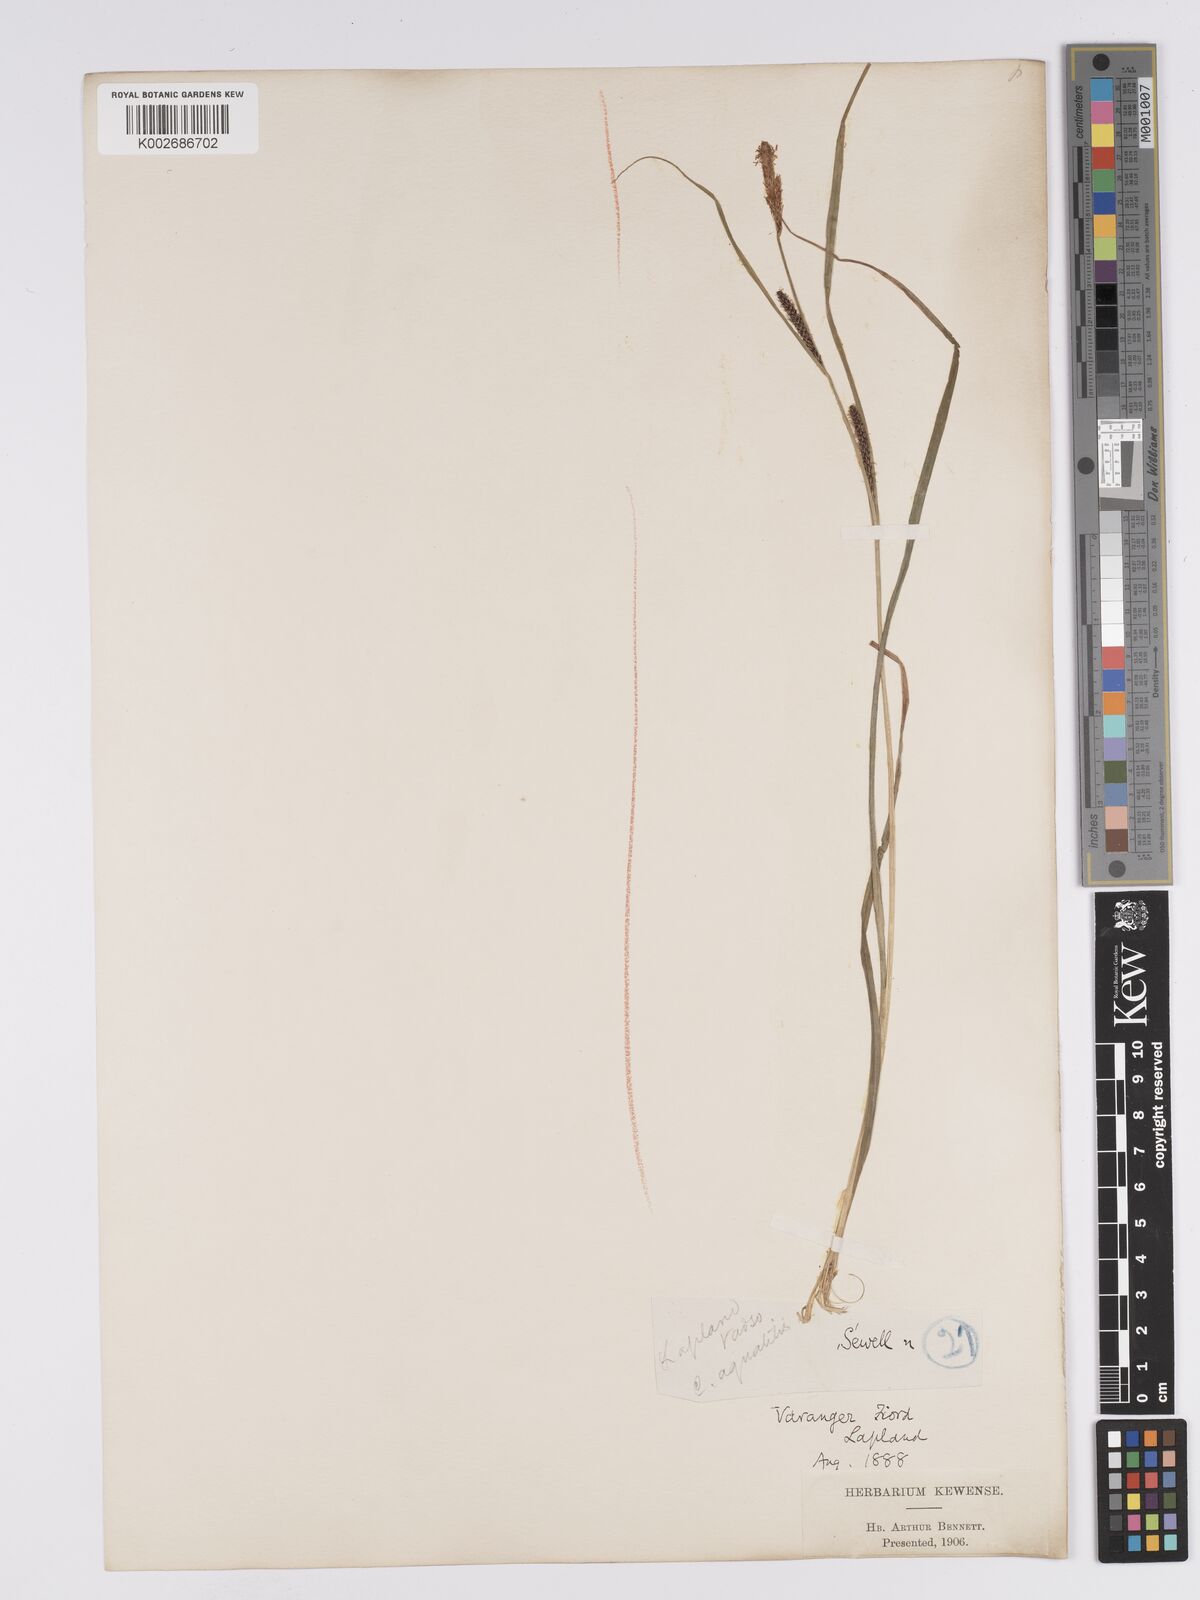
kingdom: Plantae
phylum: Tracheophyta
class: Liliopsida
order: Poales
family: Cyperaceae
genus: Carex
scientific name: Carex aquatilis
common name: Water sedge
